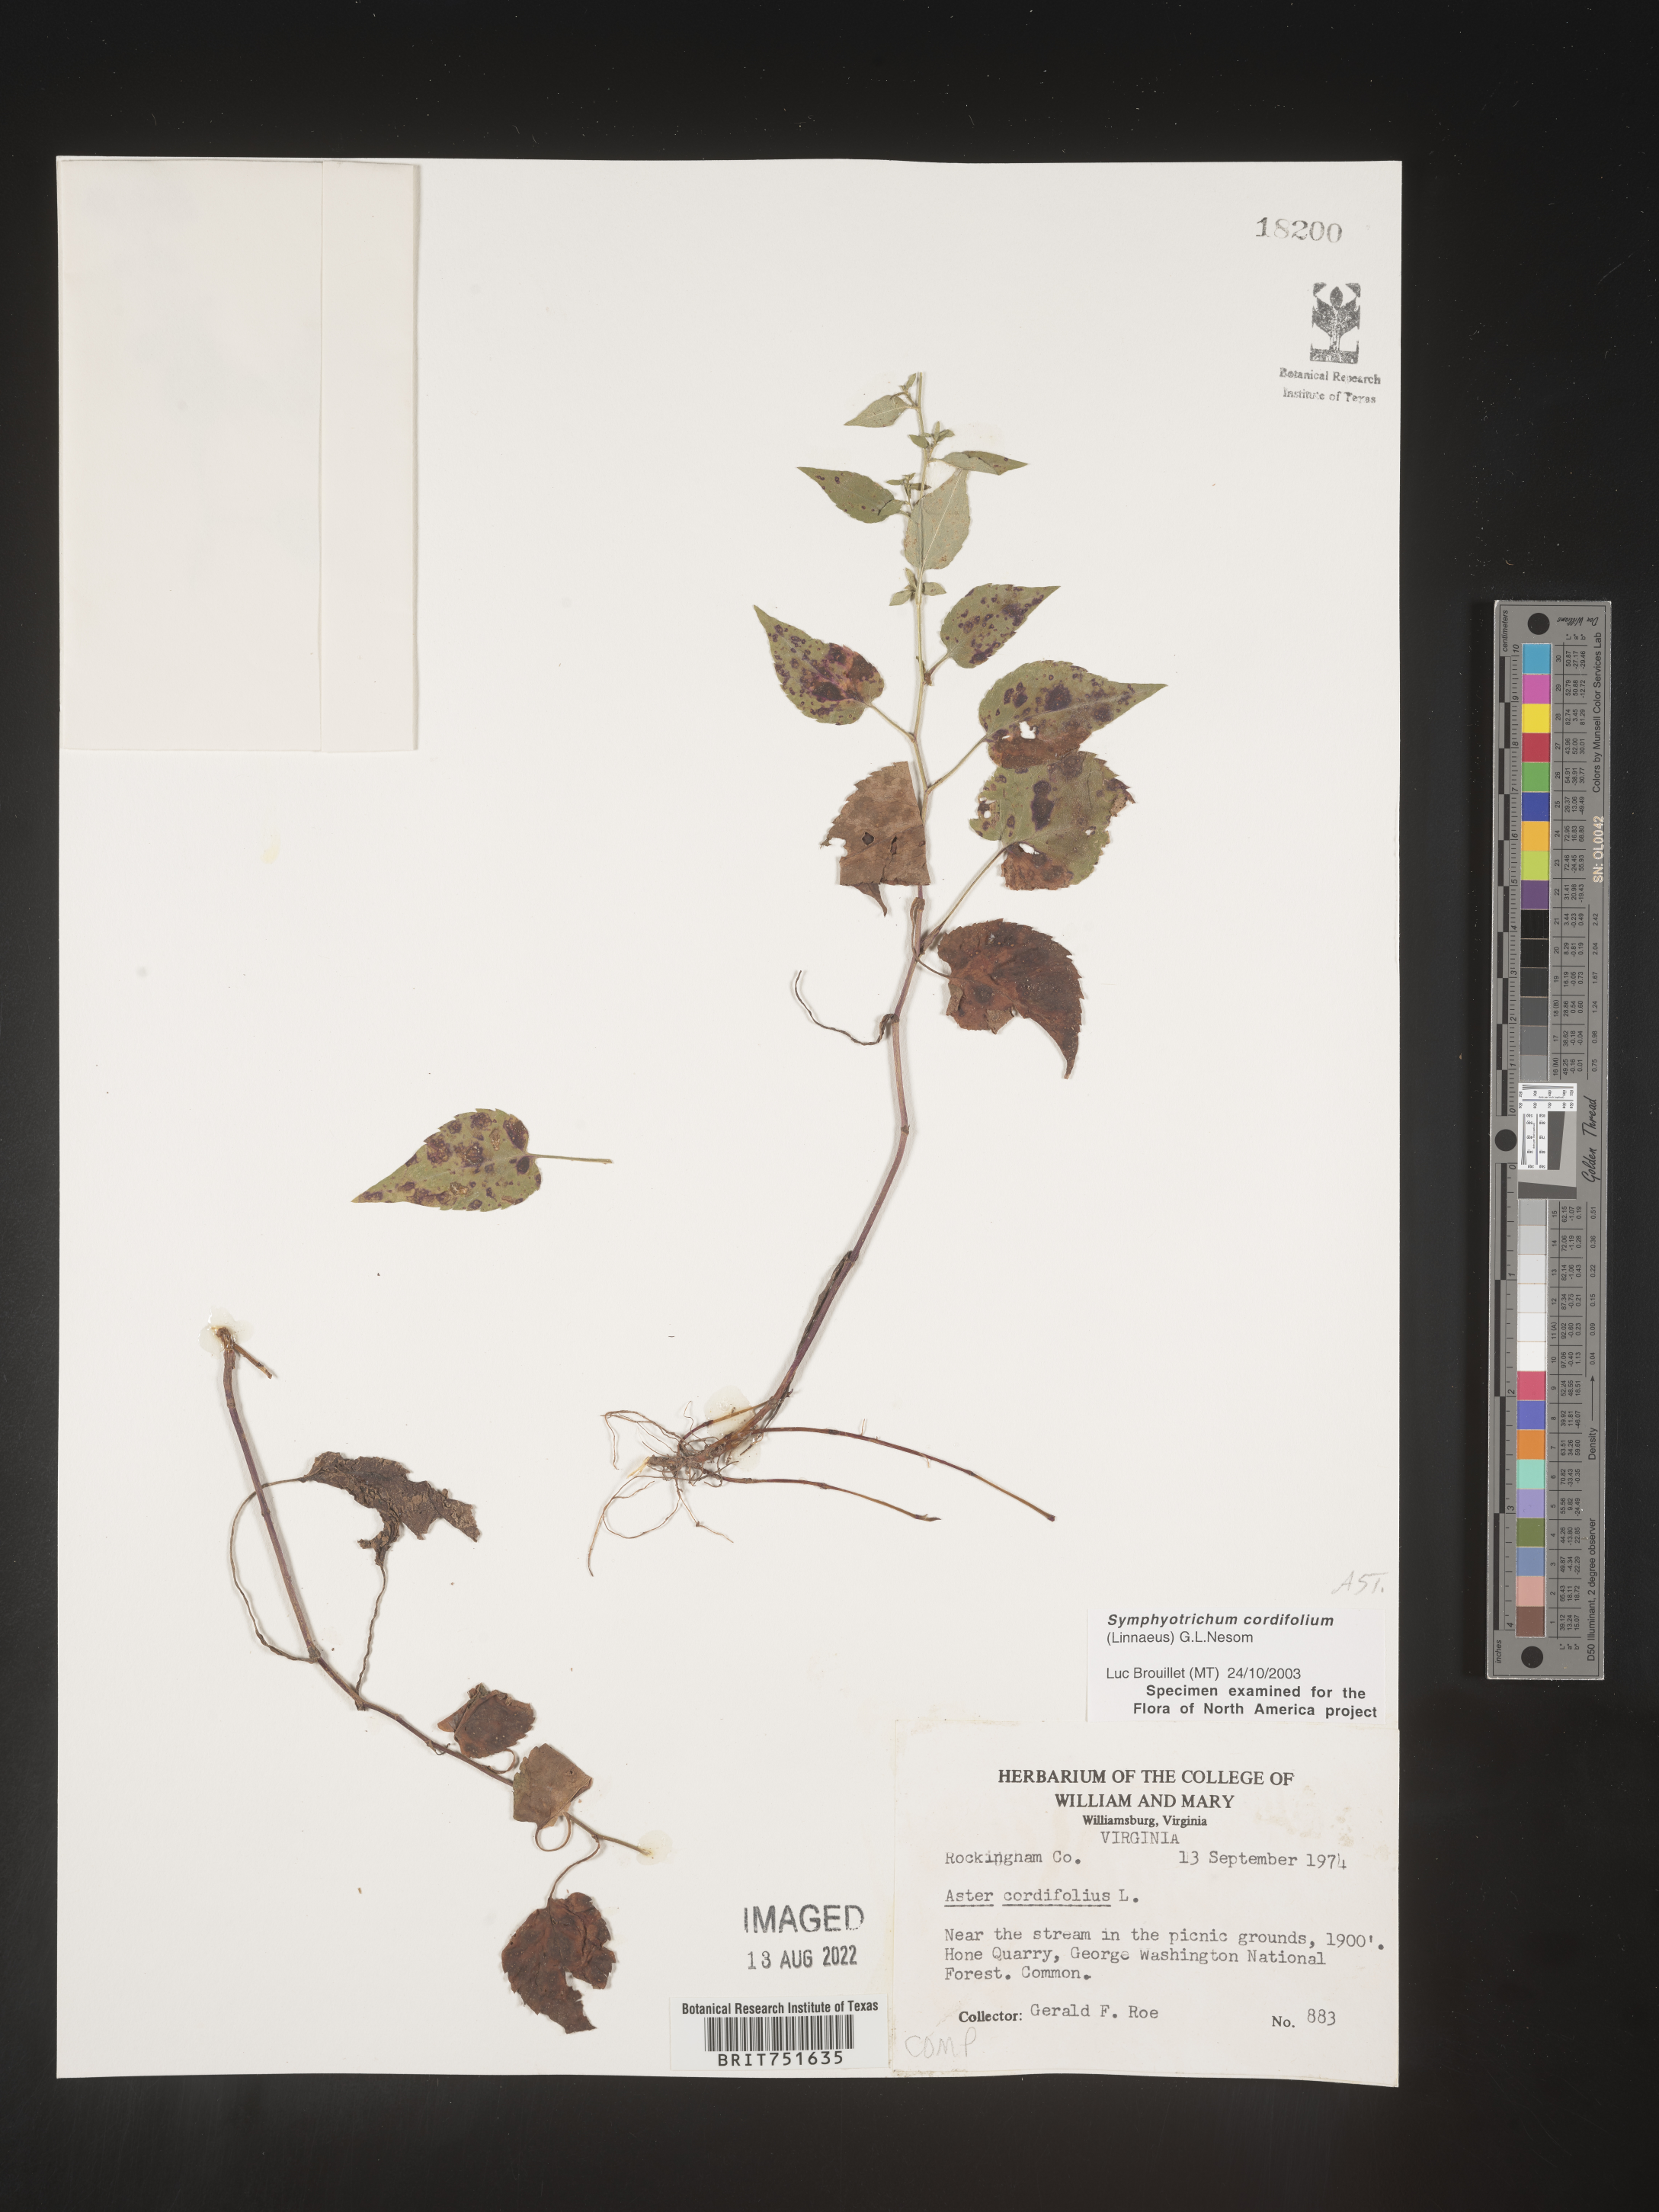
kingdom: Plantae
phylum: Tracheophyta
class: Magnoliopsida
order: Asterales
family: Asteraceae
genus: Symphyotrichum
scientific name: Symphyotrichum cordifolium
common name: Beeweed
